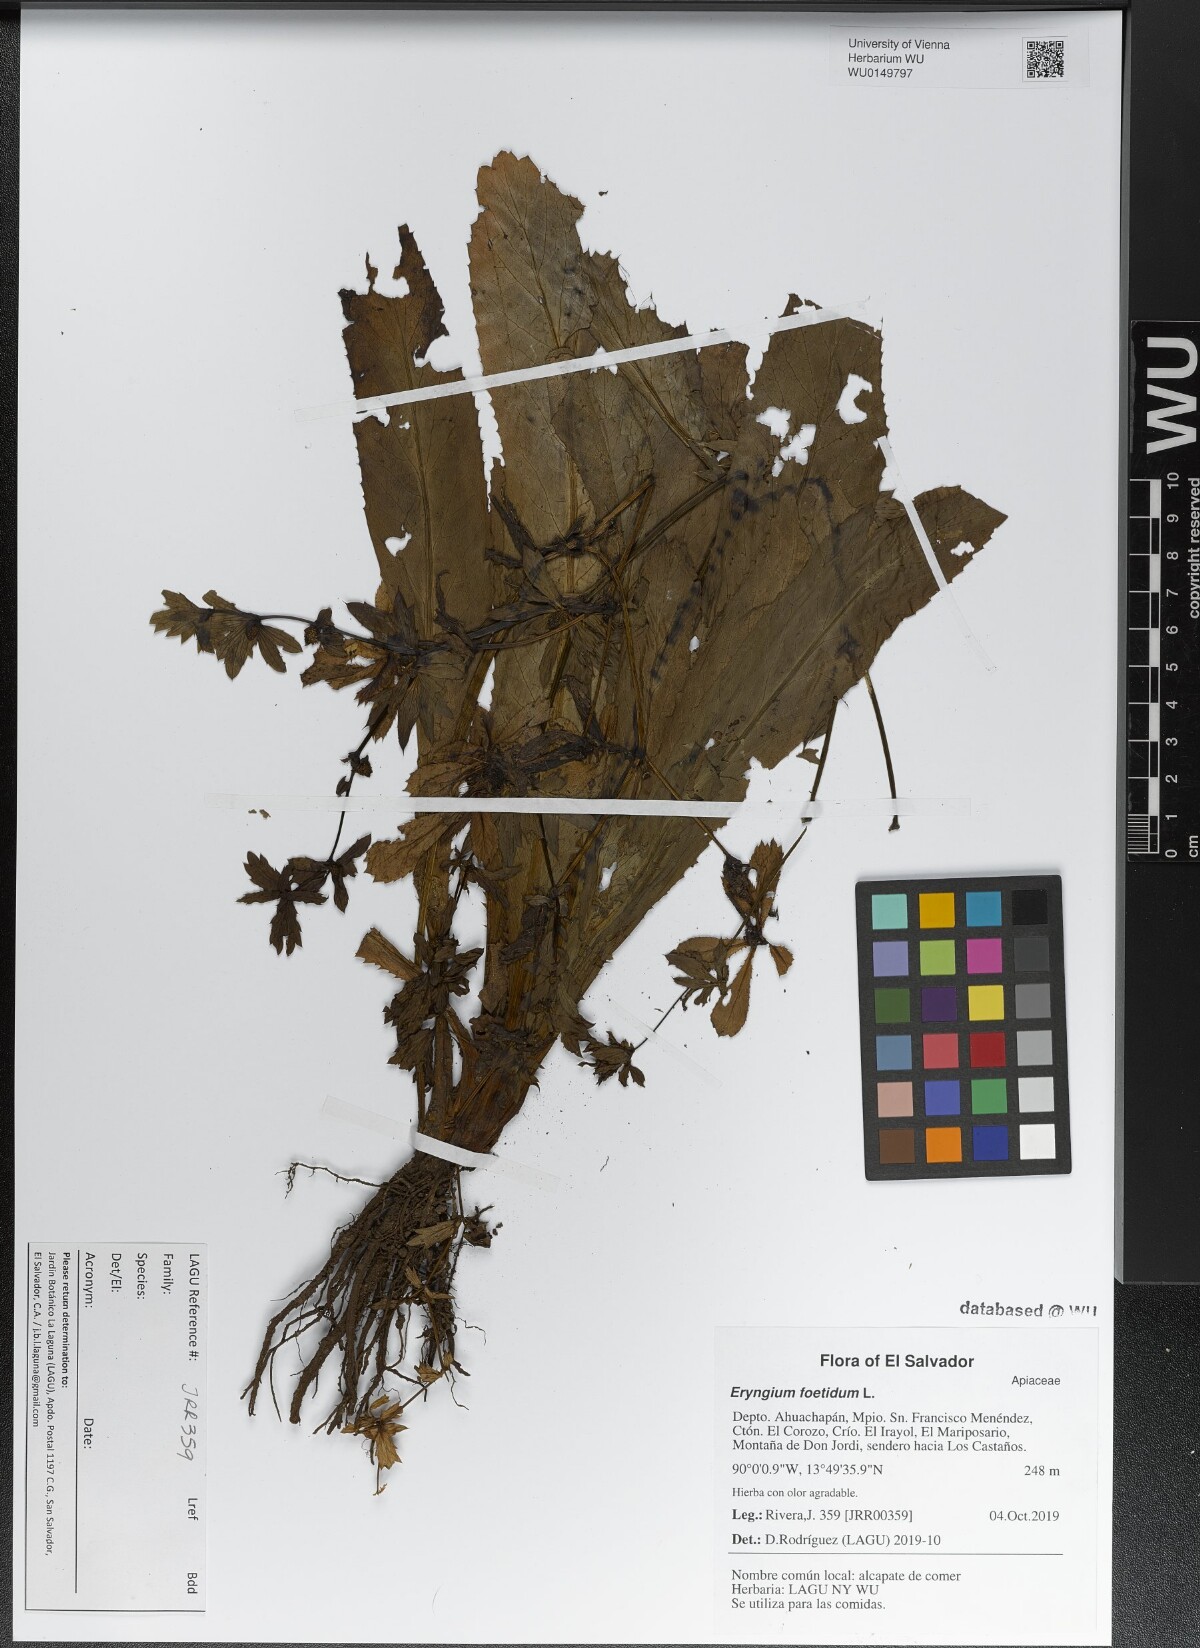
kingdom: Plantae
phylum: Tracheophyta
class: Magnoliopsida
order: Apiales
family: Apiaceae
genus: Eryngium
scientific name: Eryngium foetidum
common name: Fitweed
